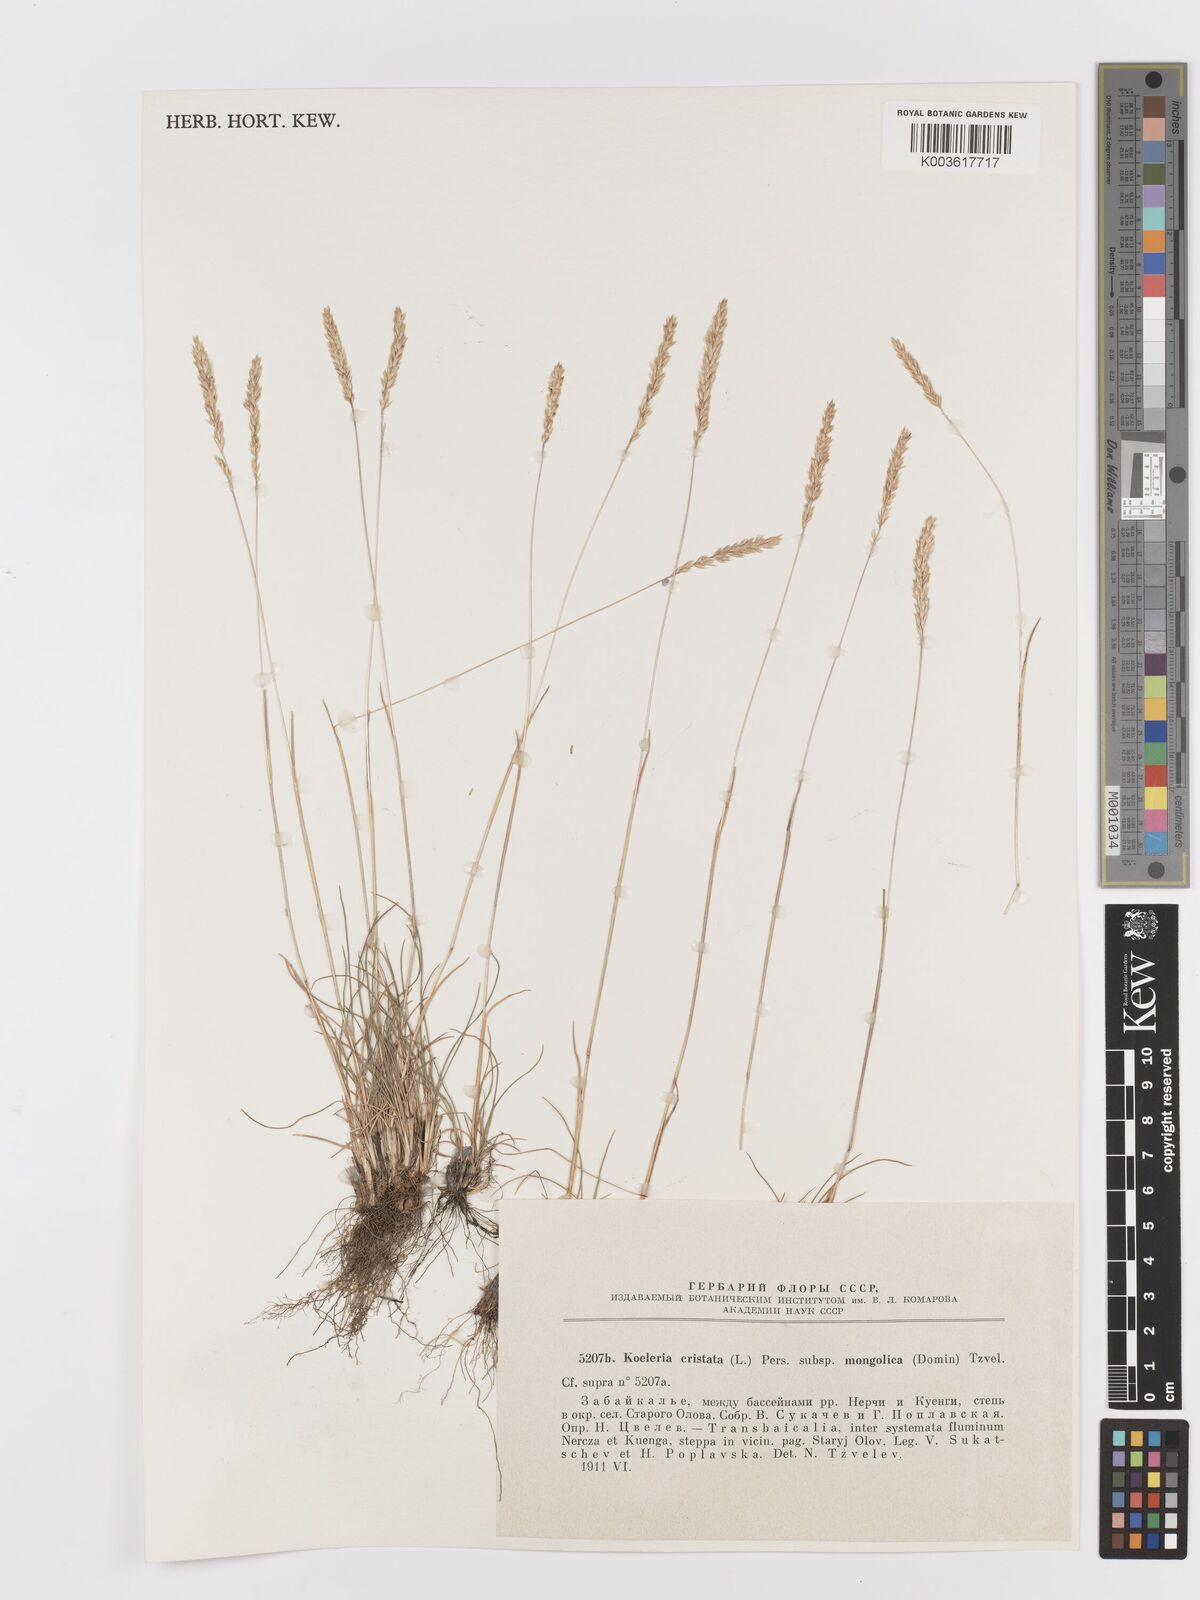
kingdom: Plantae
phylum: Tracheophyta
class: Liliopsida
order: Poales
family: Poaceae
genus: Koeleria
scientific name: Koeleria macrantha
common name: Crested hair-grass
